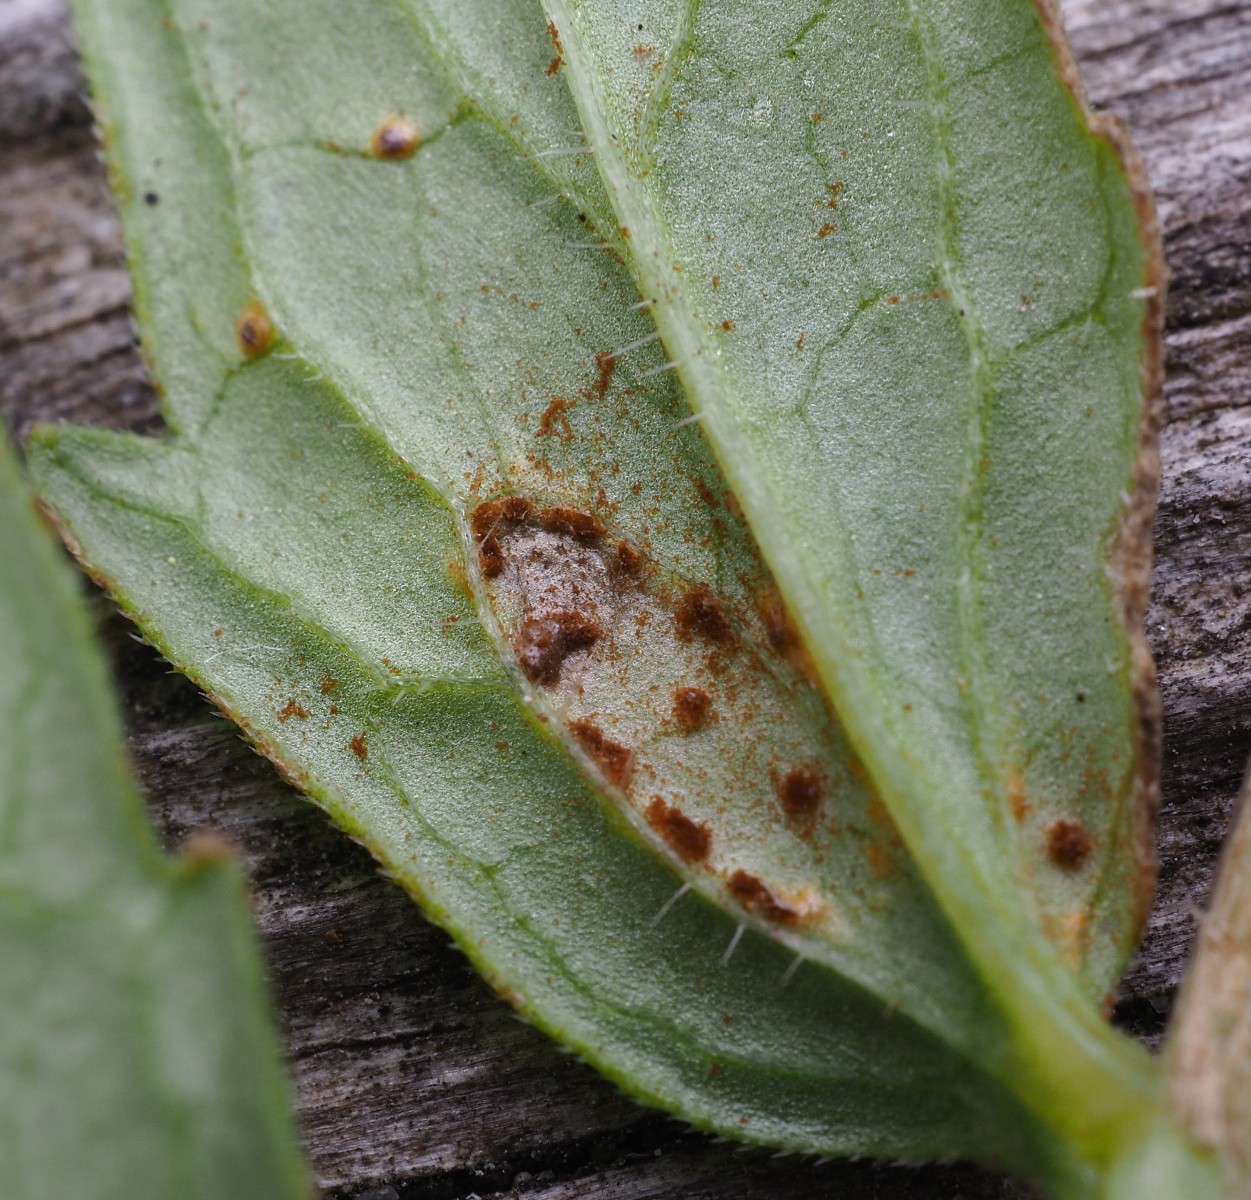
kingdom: Fungi
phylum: Basidiomycota
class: Pucciniomycetes
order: Pucciniales
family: Pucciniaceae
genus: Uromyces
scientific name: Uromyces valerianae
